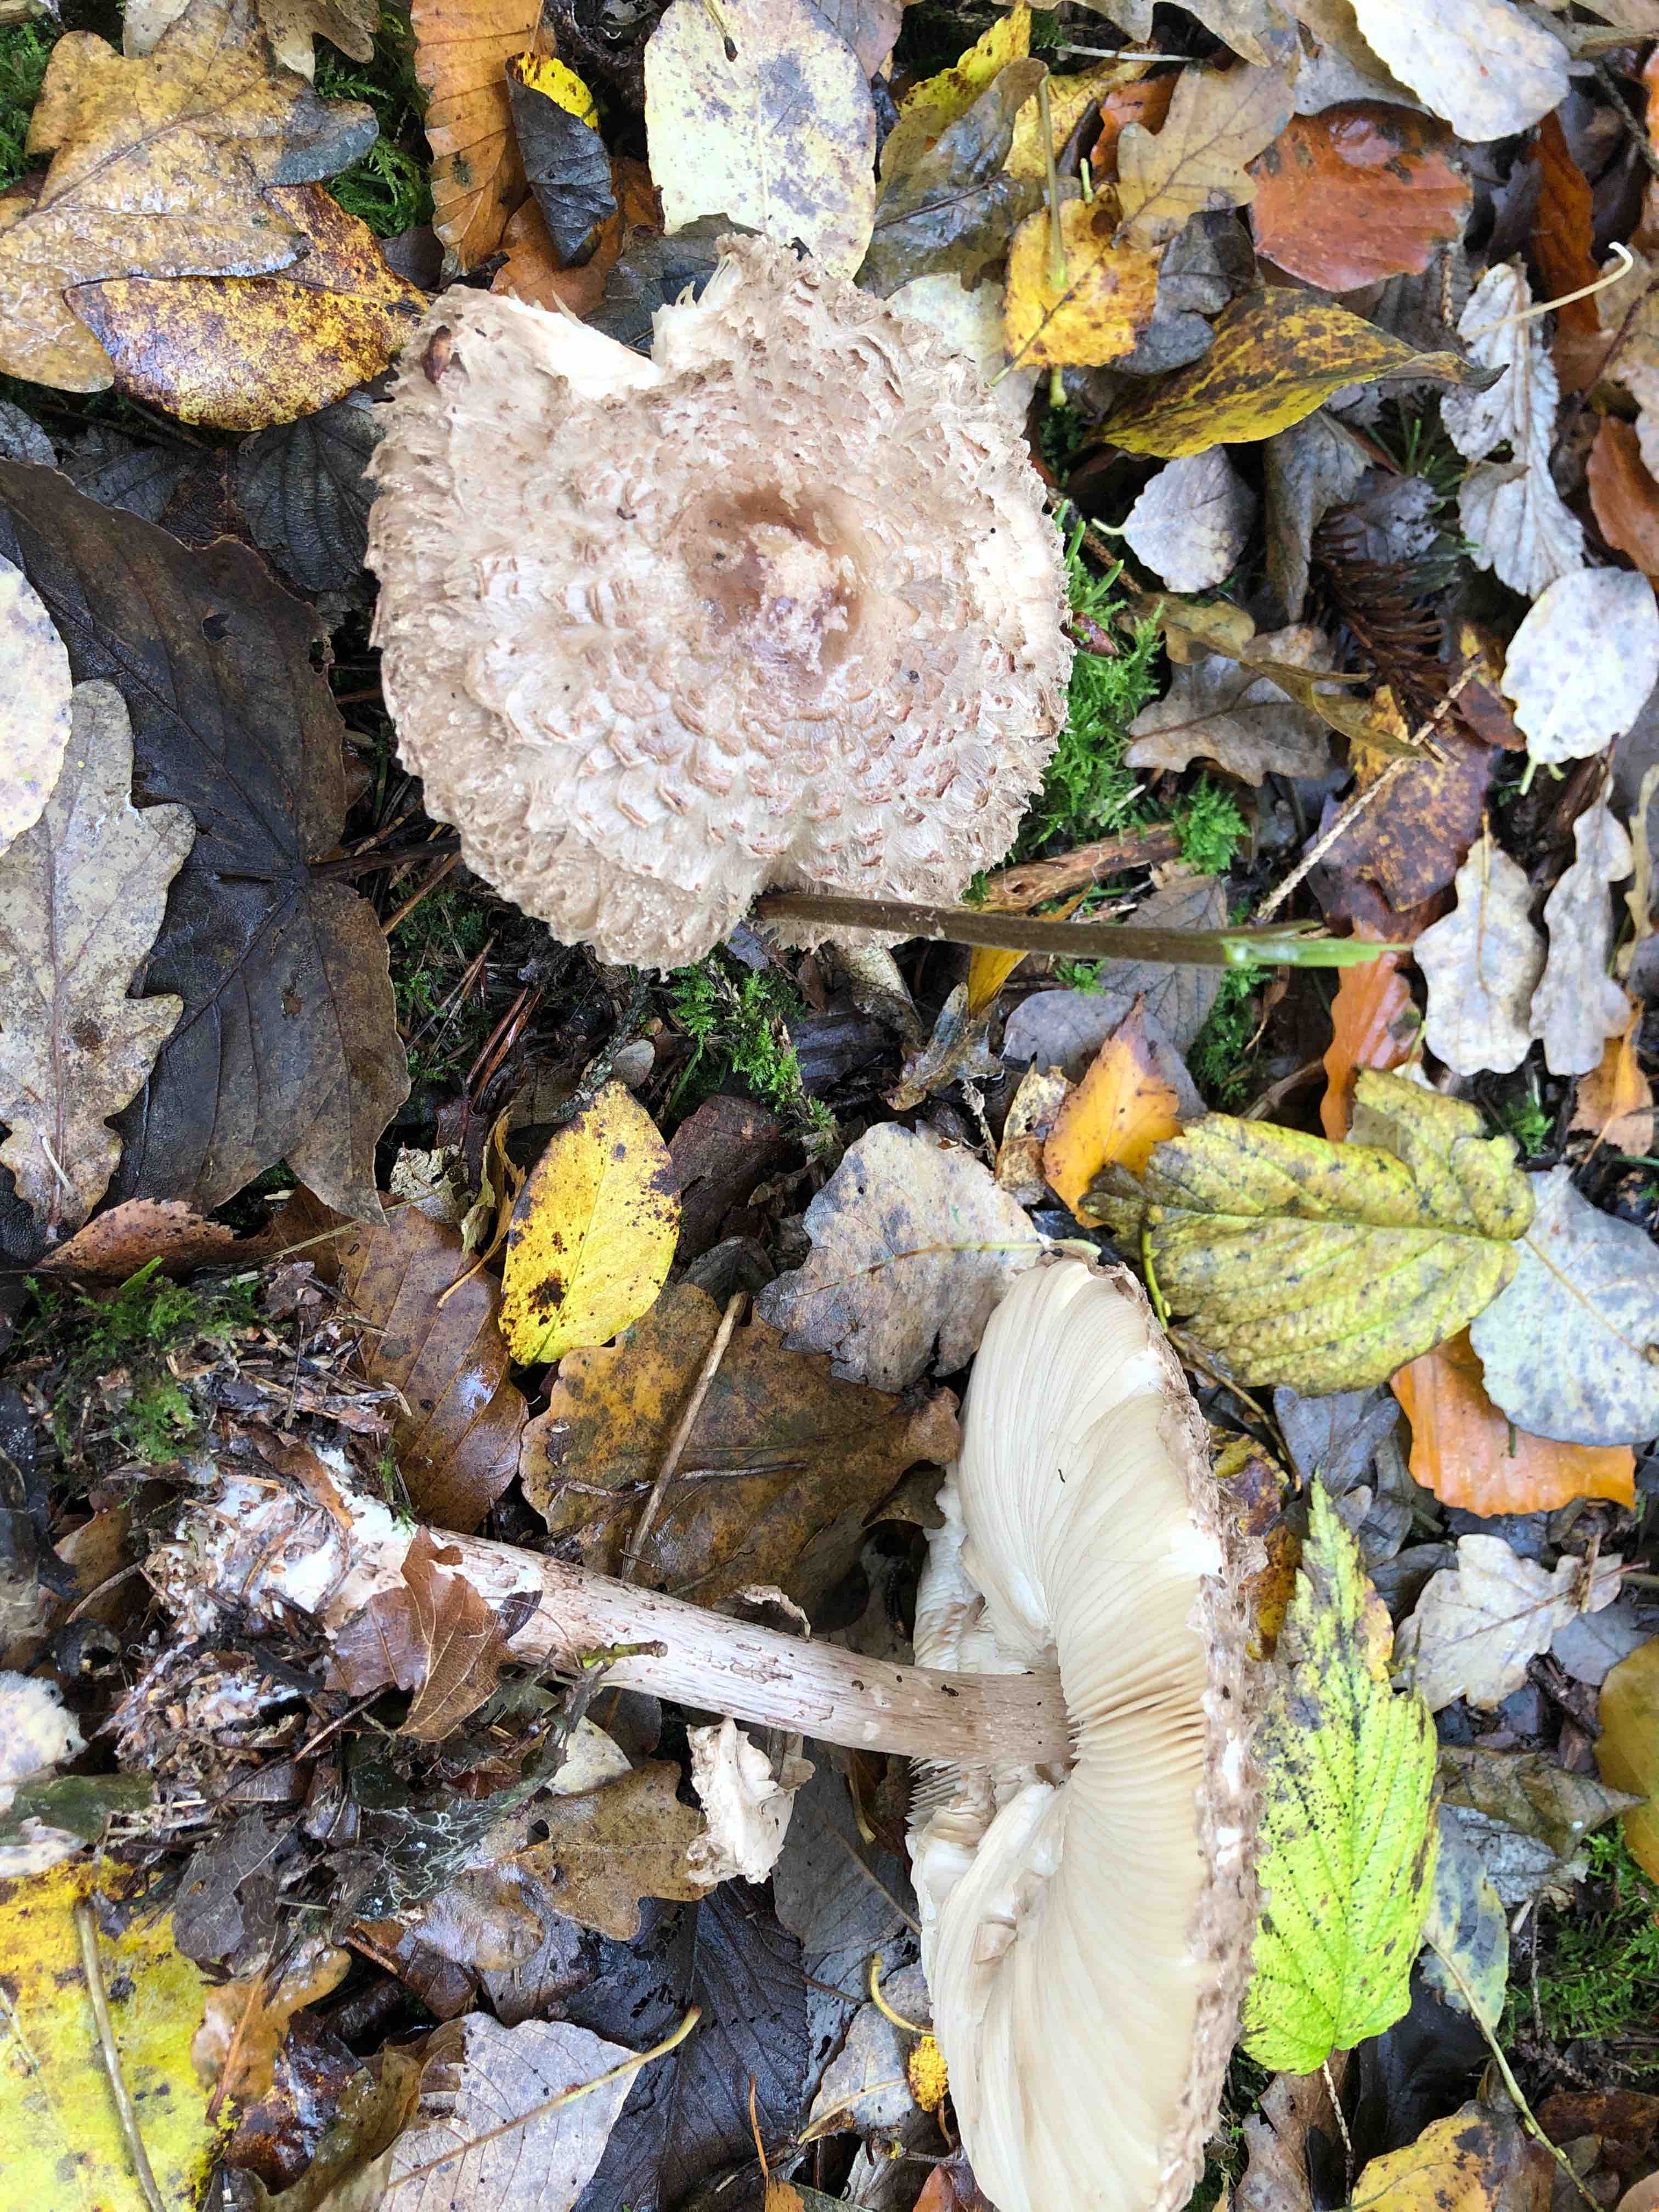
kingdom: Fungi
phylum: Basidiomycota
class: Agaricomycetes
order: Agaricales
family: Agaricaceae
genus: Chlorophyllum
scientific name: Chlorophyllum olivieri
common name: almindelig rabarberhat
